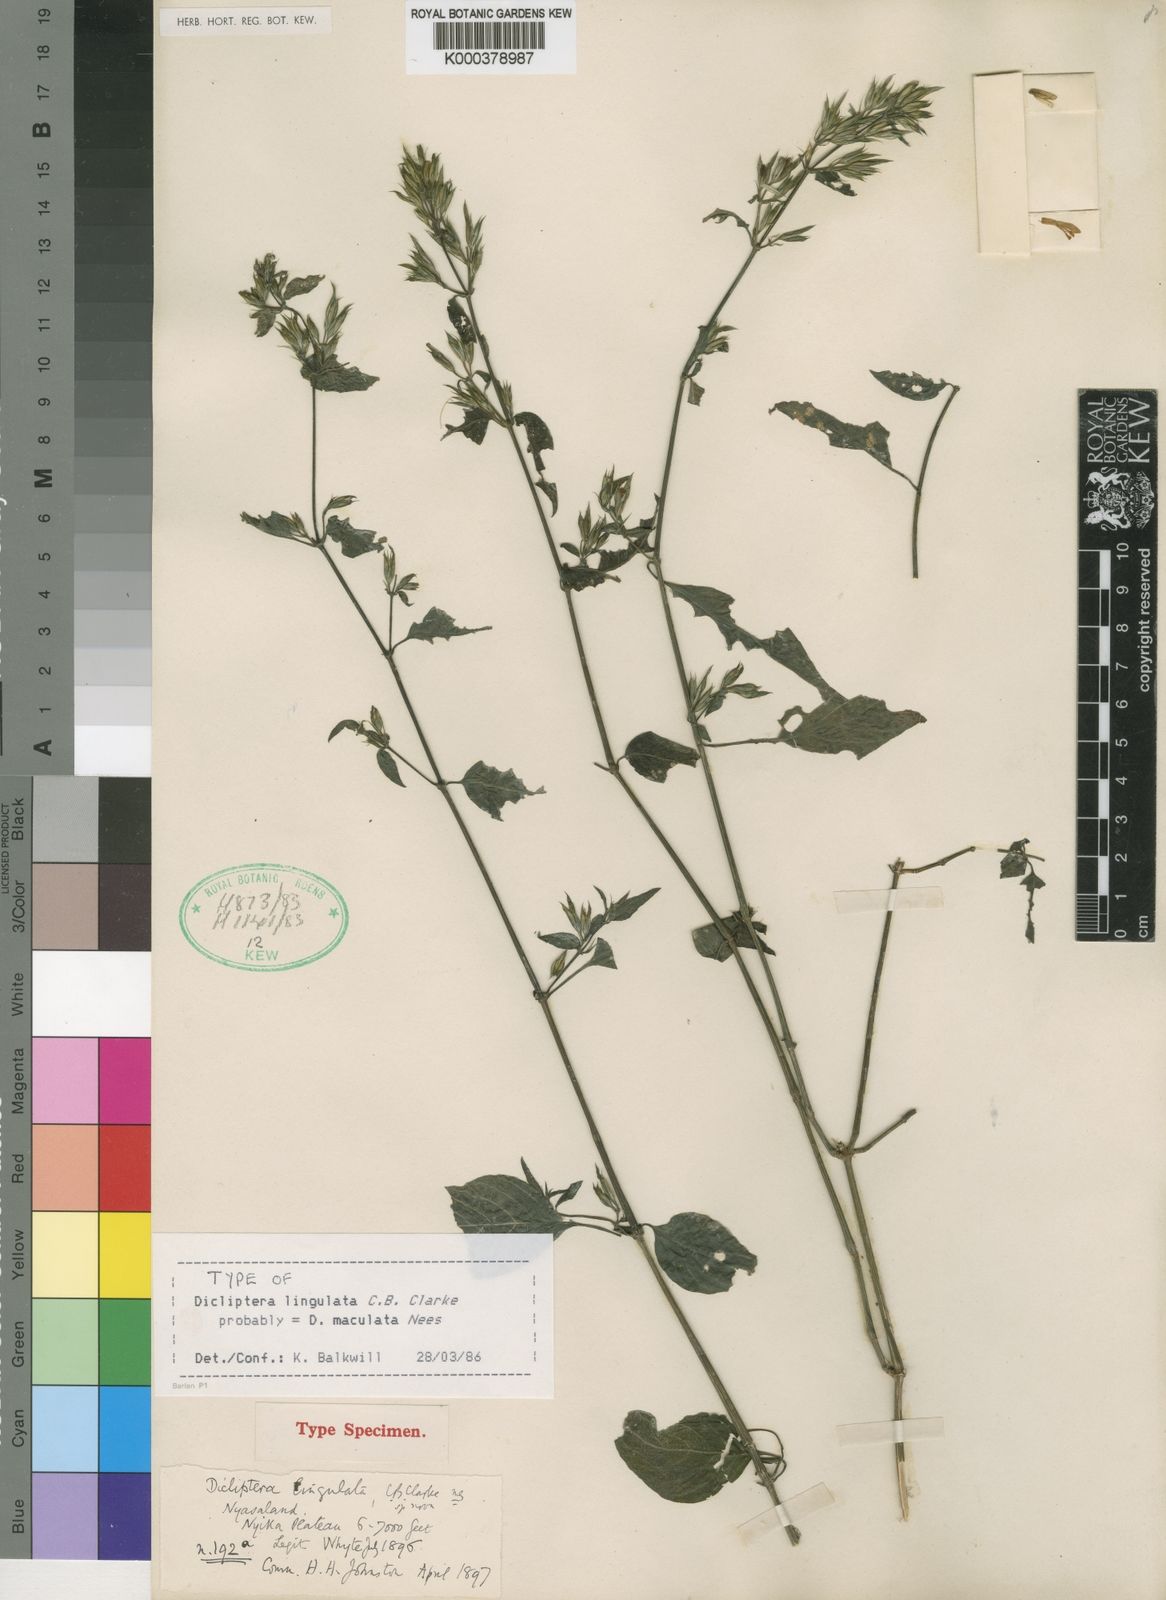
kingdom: Plantae
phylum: Tracheophyta
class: Magnoliopsida
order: Lamiales
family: Acanthaceae
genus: Dicliptera
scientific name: Dicliptera maculata
